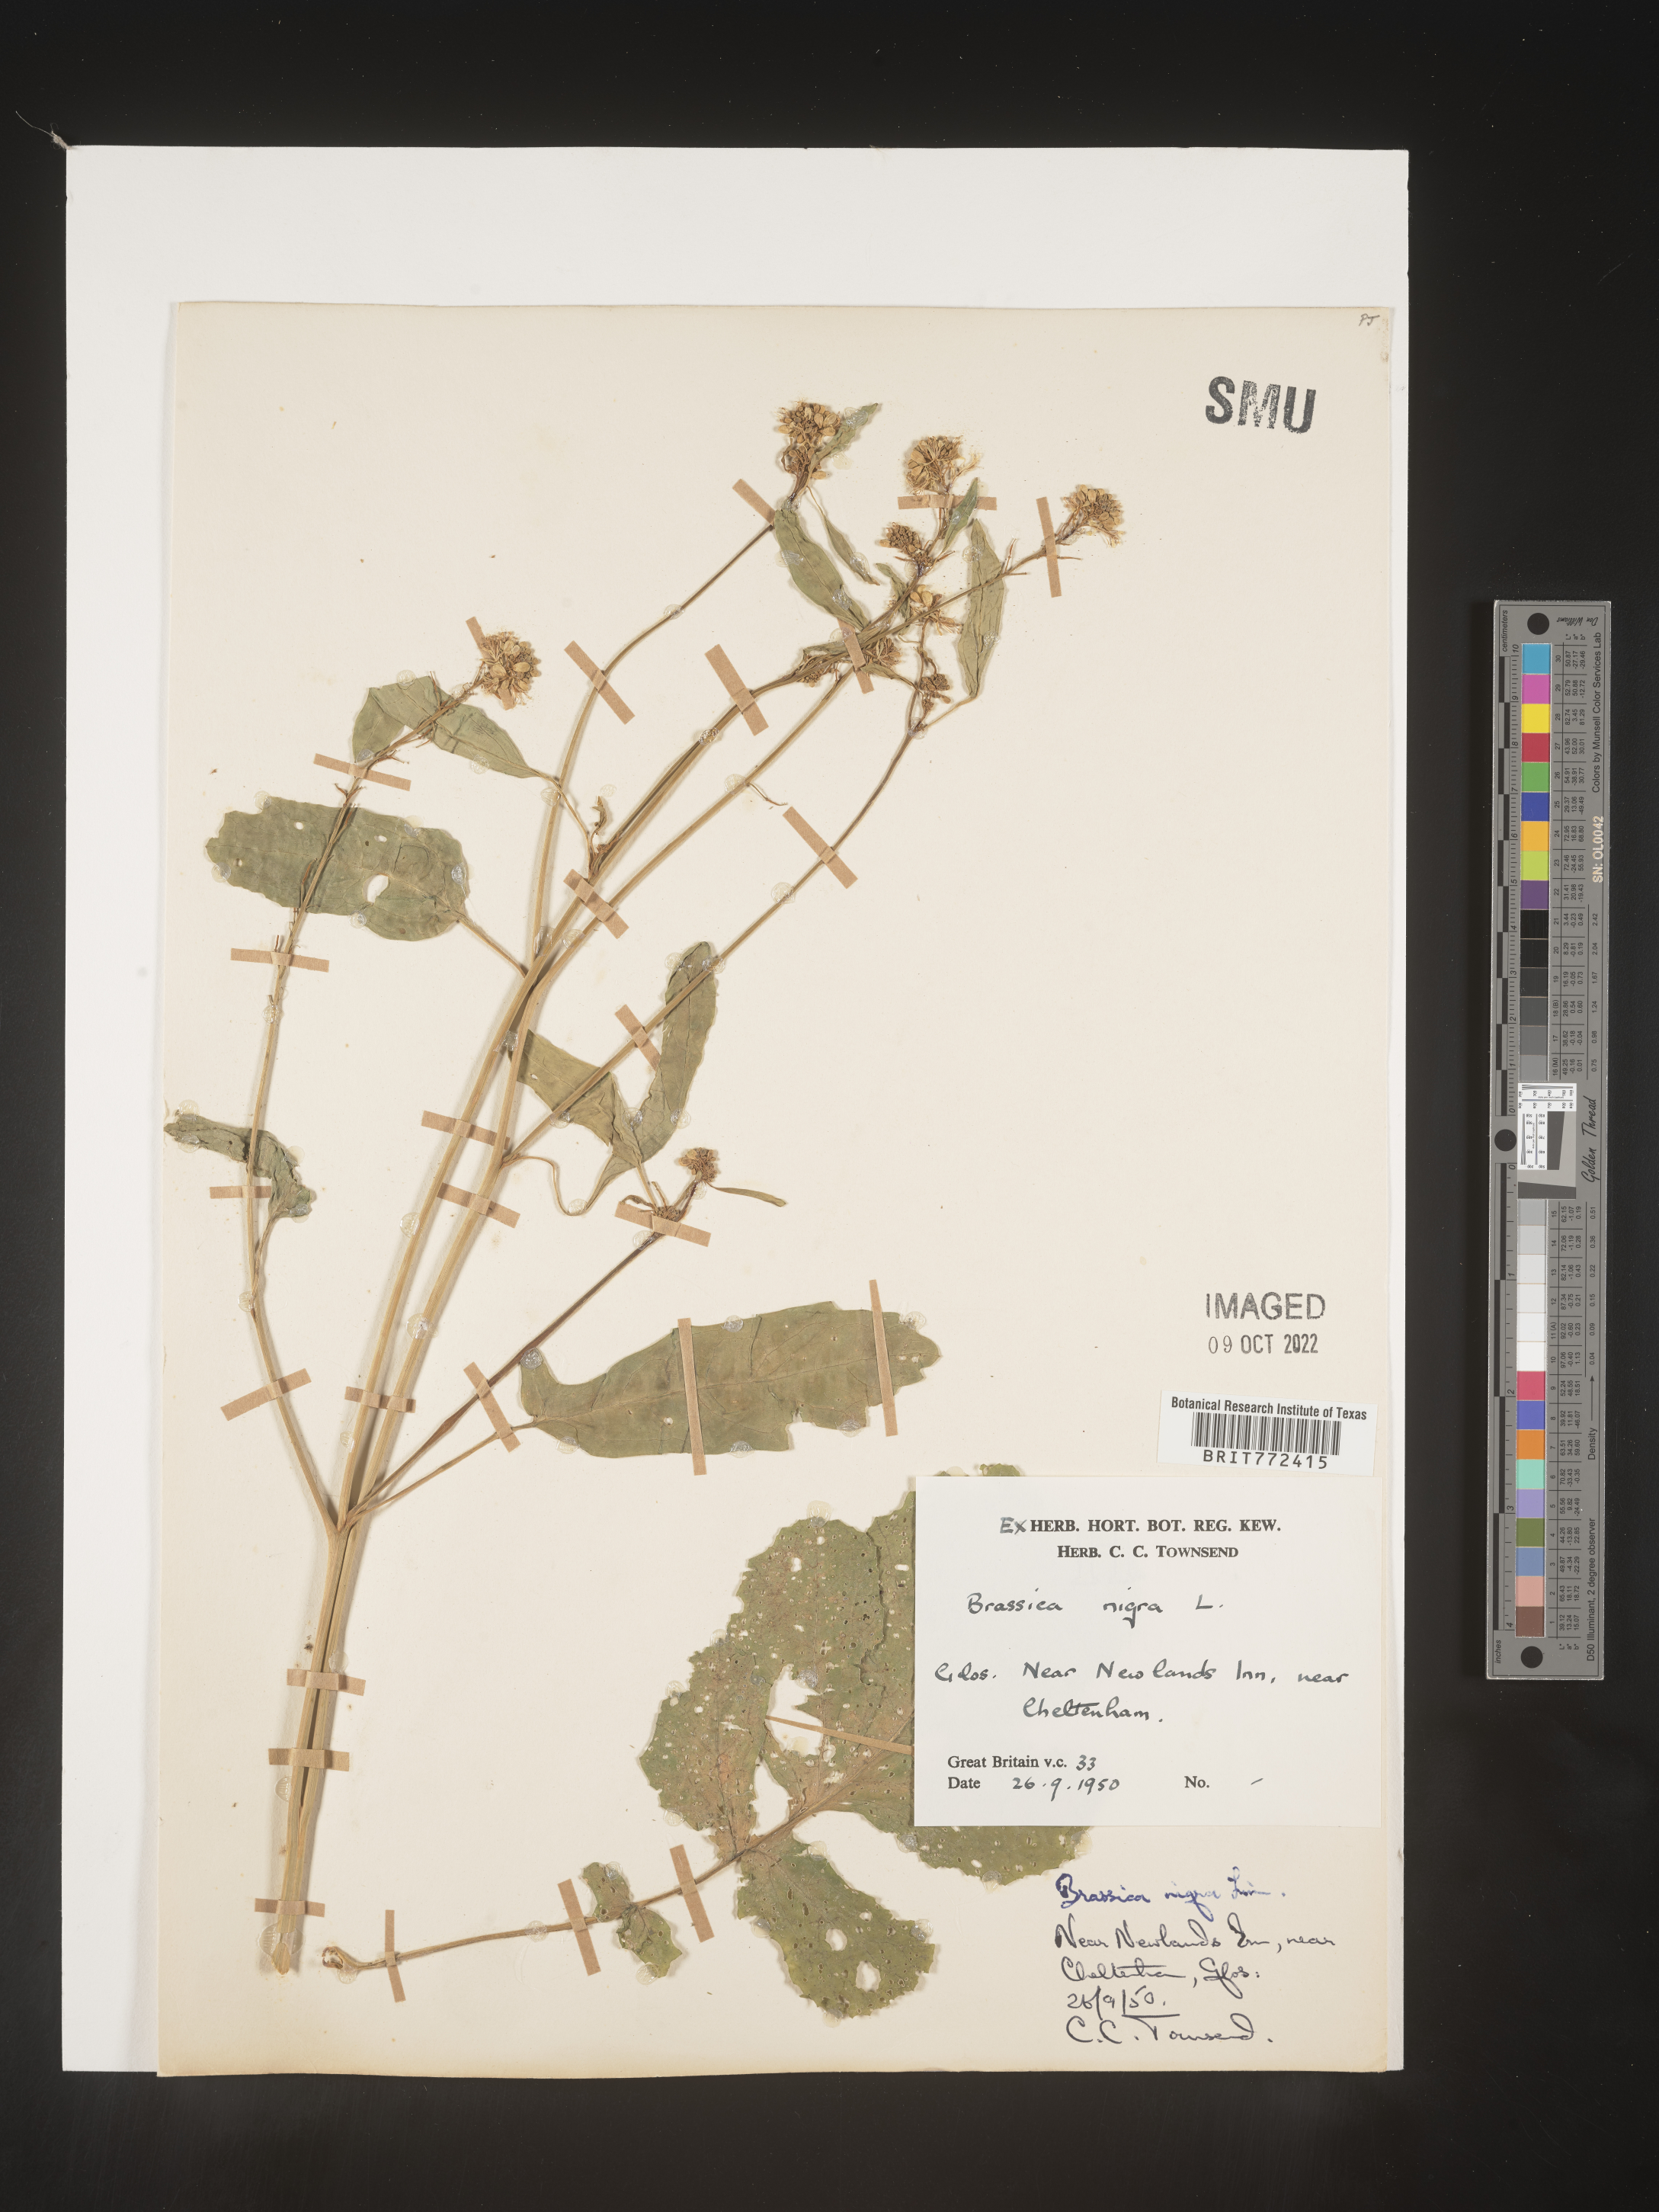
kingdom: Plantae
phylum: Tracheophyta
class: Magnoliopsida
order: Brassicales
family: Brassicaceae
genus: Brassica
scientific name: Brassica
